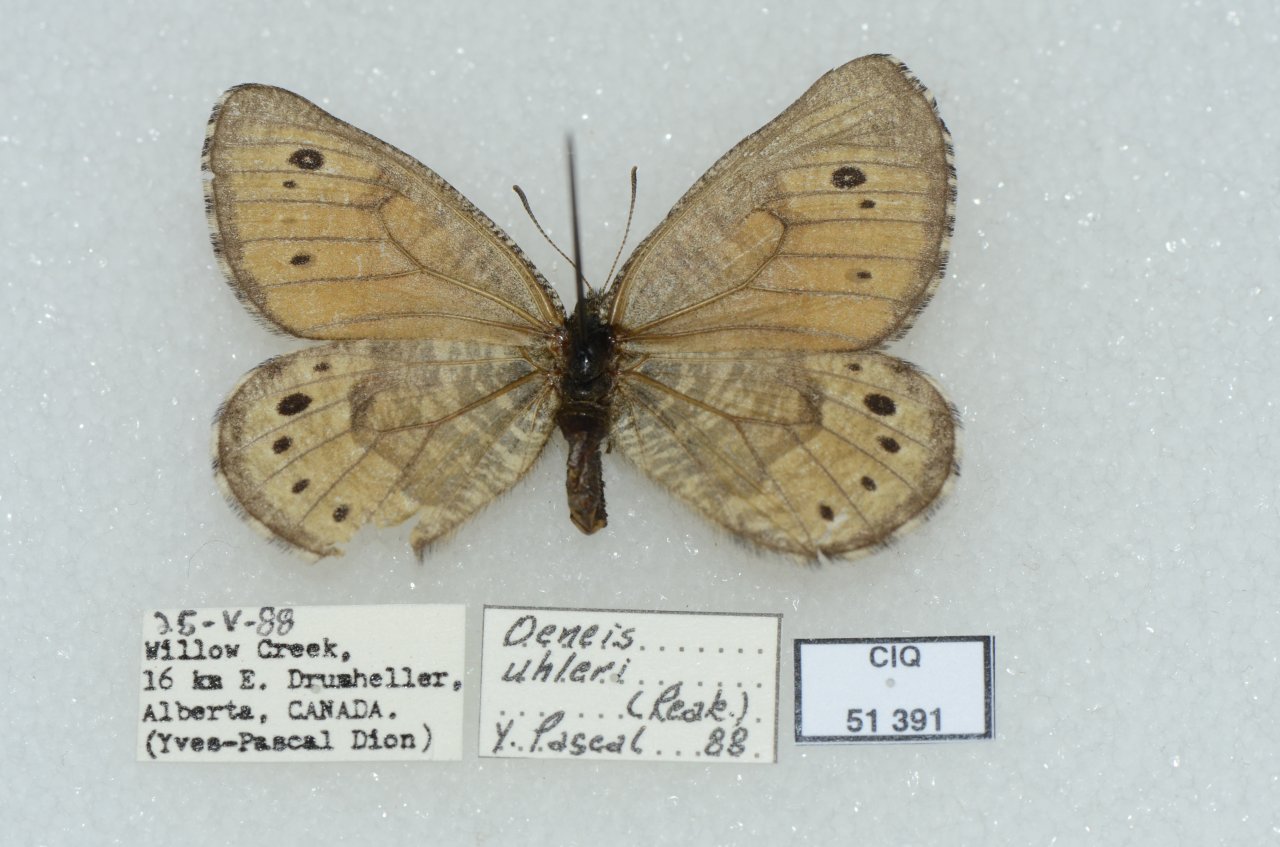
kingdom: Animalia
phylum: Arthropoda
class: Insecta
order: Lepidoptera
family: Nymphalidae
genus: Oeneis
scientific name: Oeneis uhleri
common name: Uhler's Arctic
